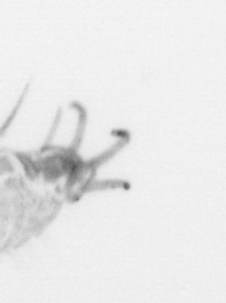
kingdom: Animalia
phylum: Annelida
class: Polychaeta
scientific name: Polychaeta
